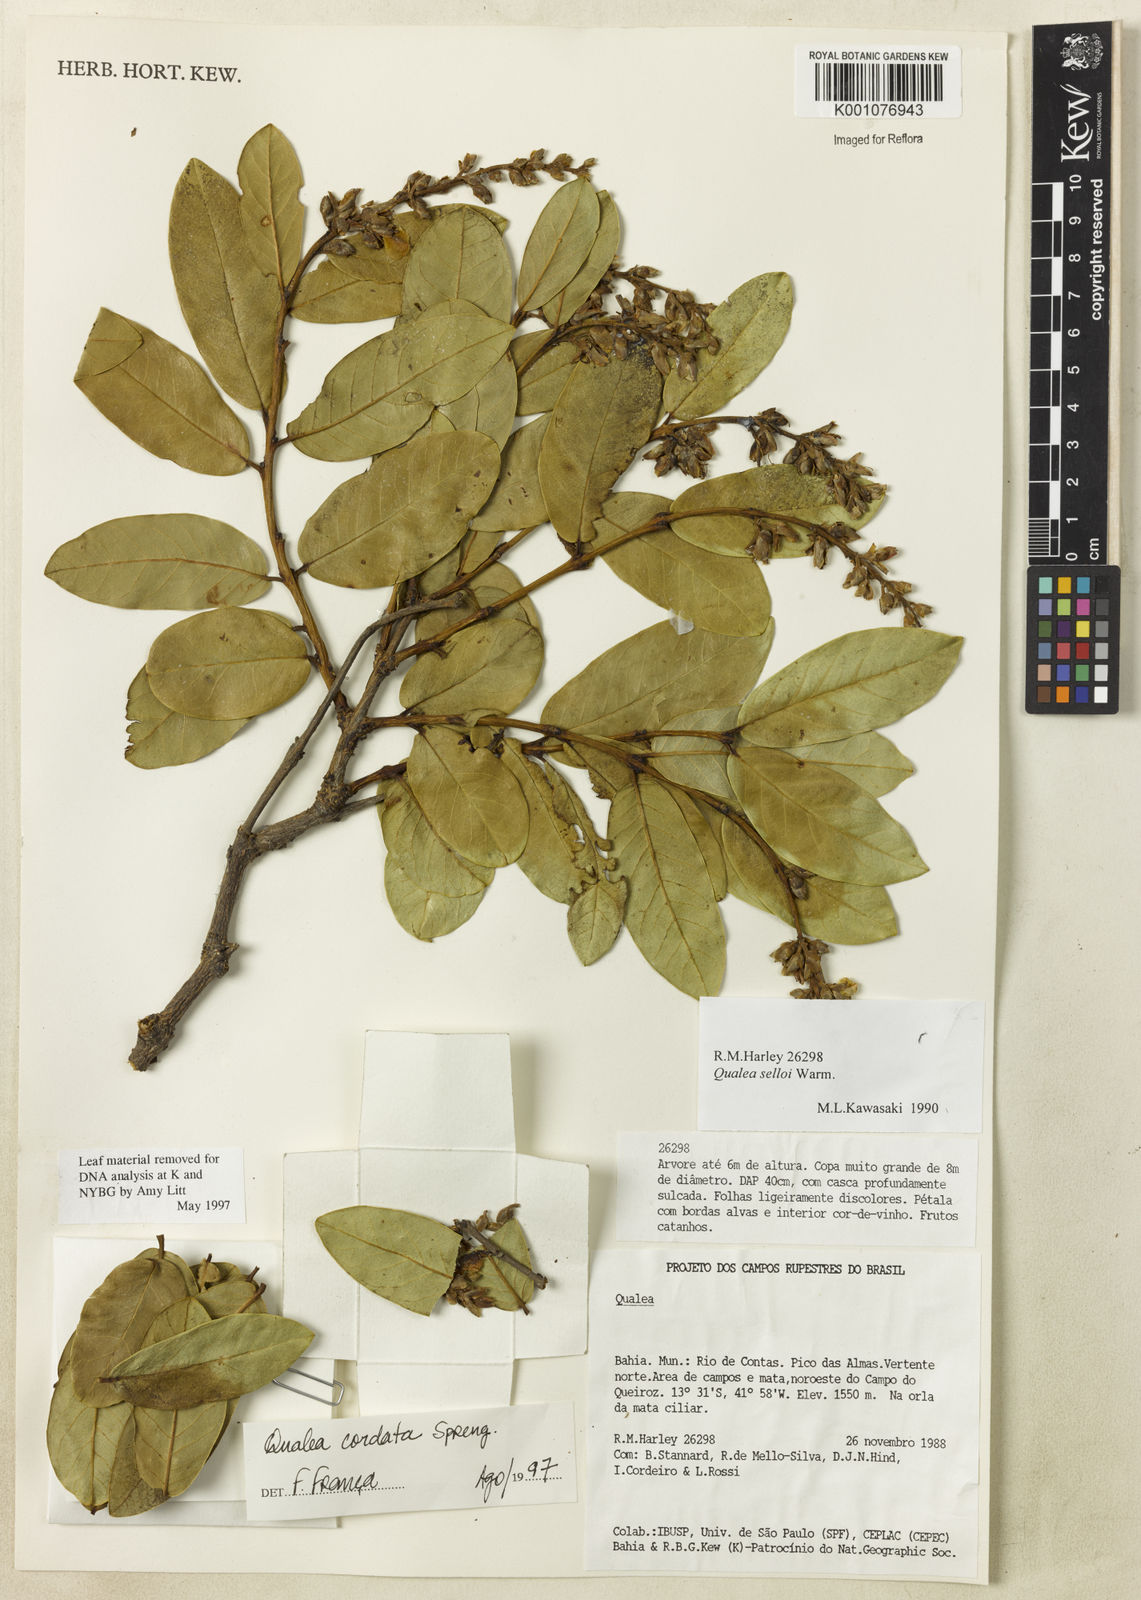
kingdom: Plantae
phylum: Tracheophyta
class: Magnoliopsida
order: Myrtales
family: Vochysiaceae
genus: Qualea
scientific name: Qualea cordata
